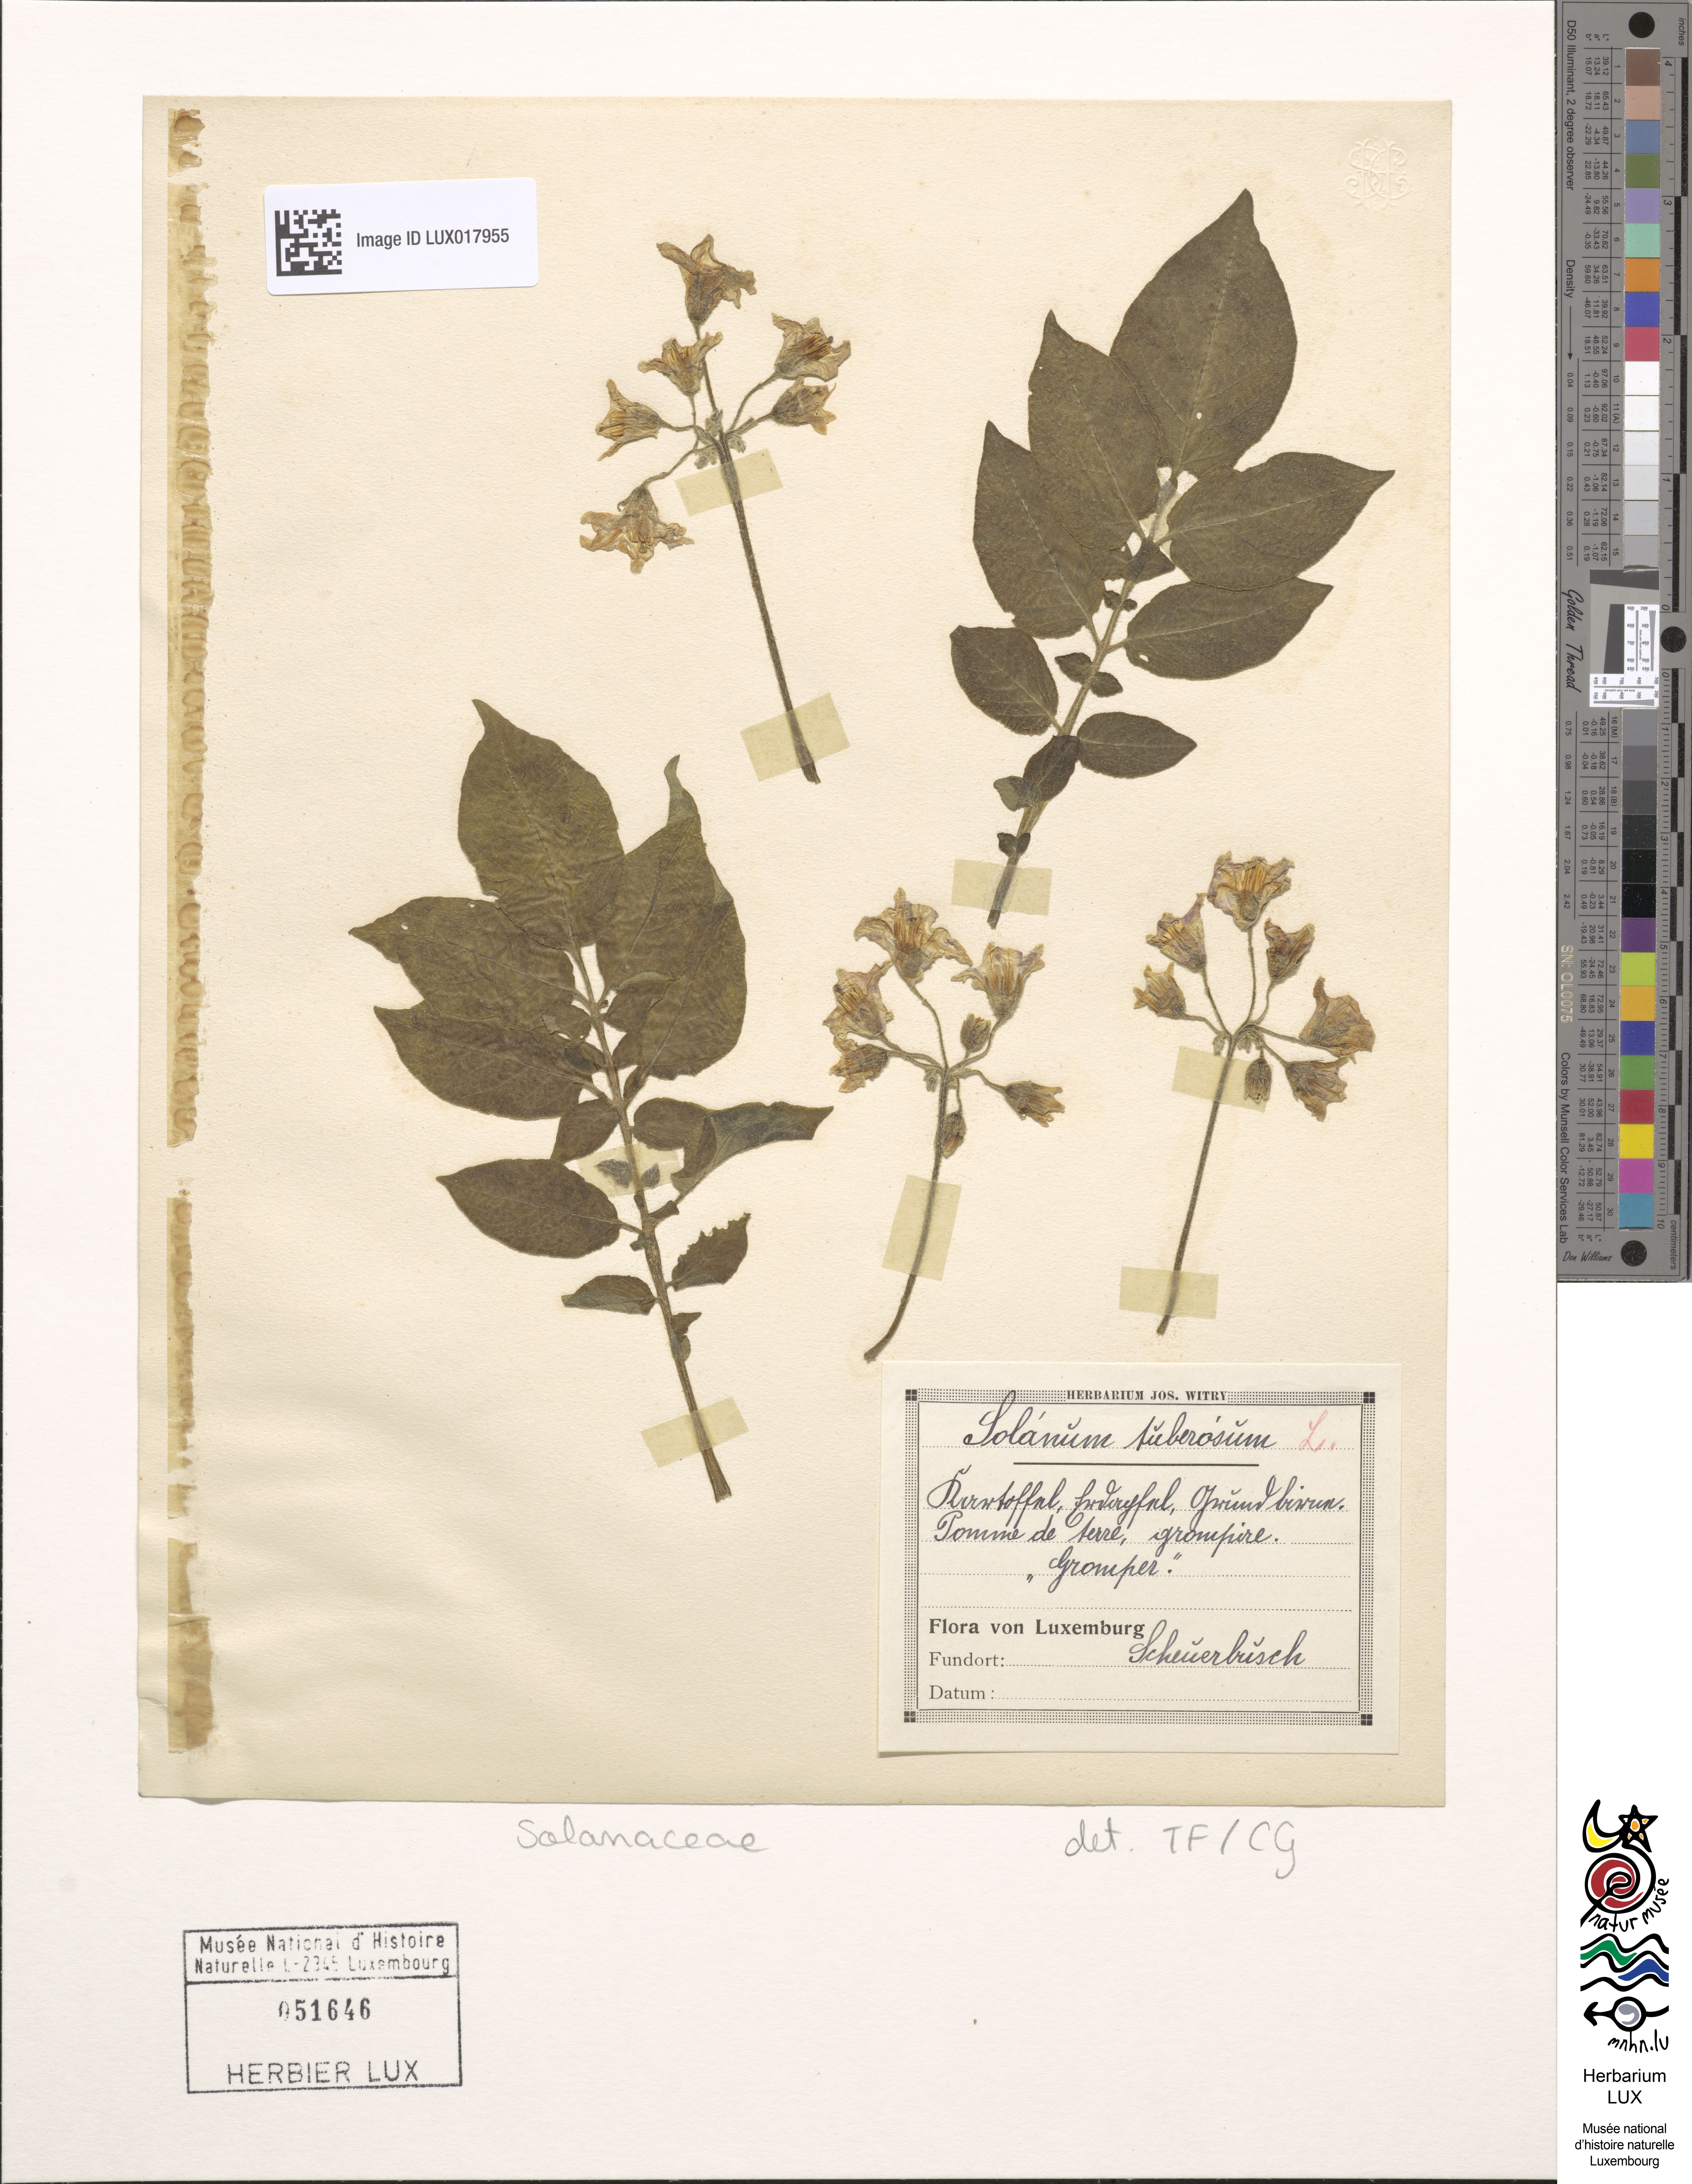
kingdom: Plantae
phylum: Tracheophyta
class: Magnoliopsida
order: Solanales
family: Solanaceae
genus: Solanum
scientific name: Solanum tuberosum
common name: Potato
